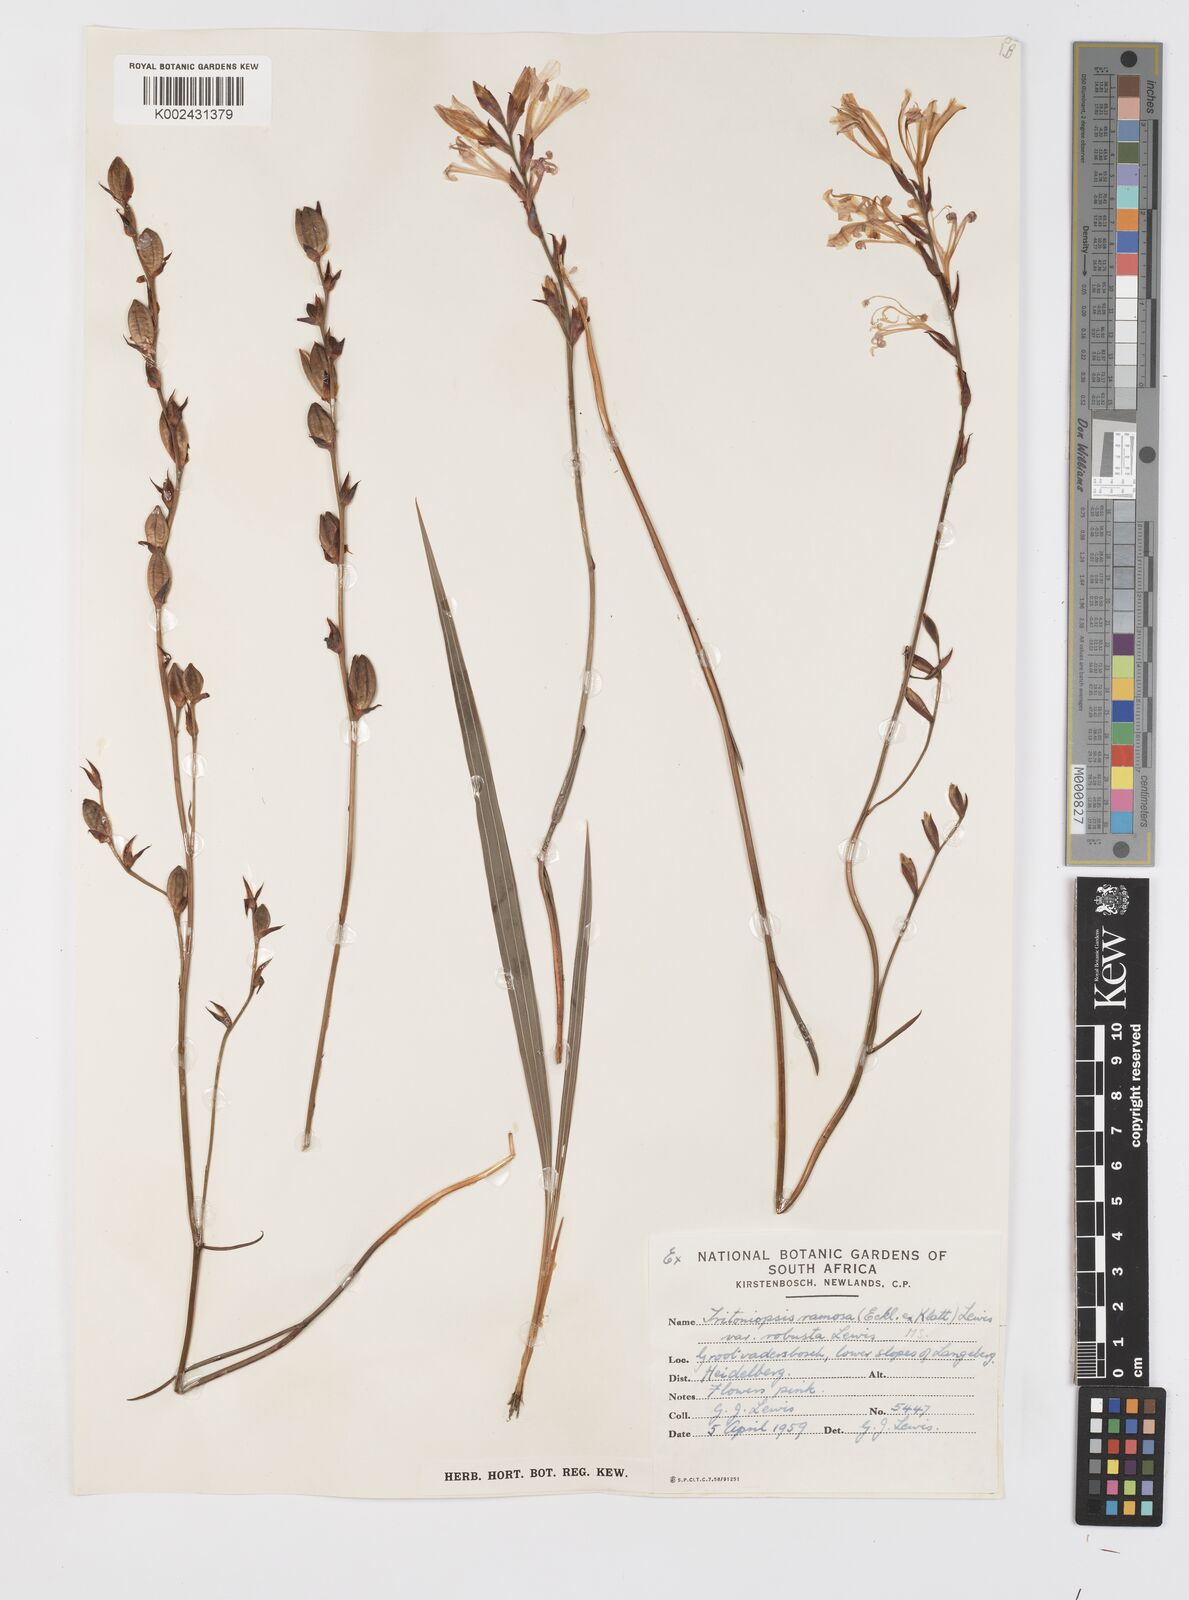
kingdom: Plantae
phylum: Tracheophyta
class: Liliopsida
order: Asparagales
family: Iridaceae
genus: Tritoniopsis
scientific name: Tritoniopsis ramosa
